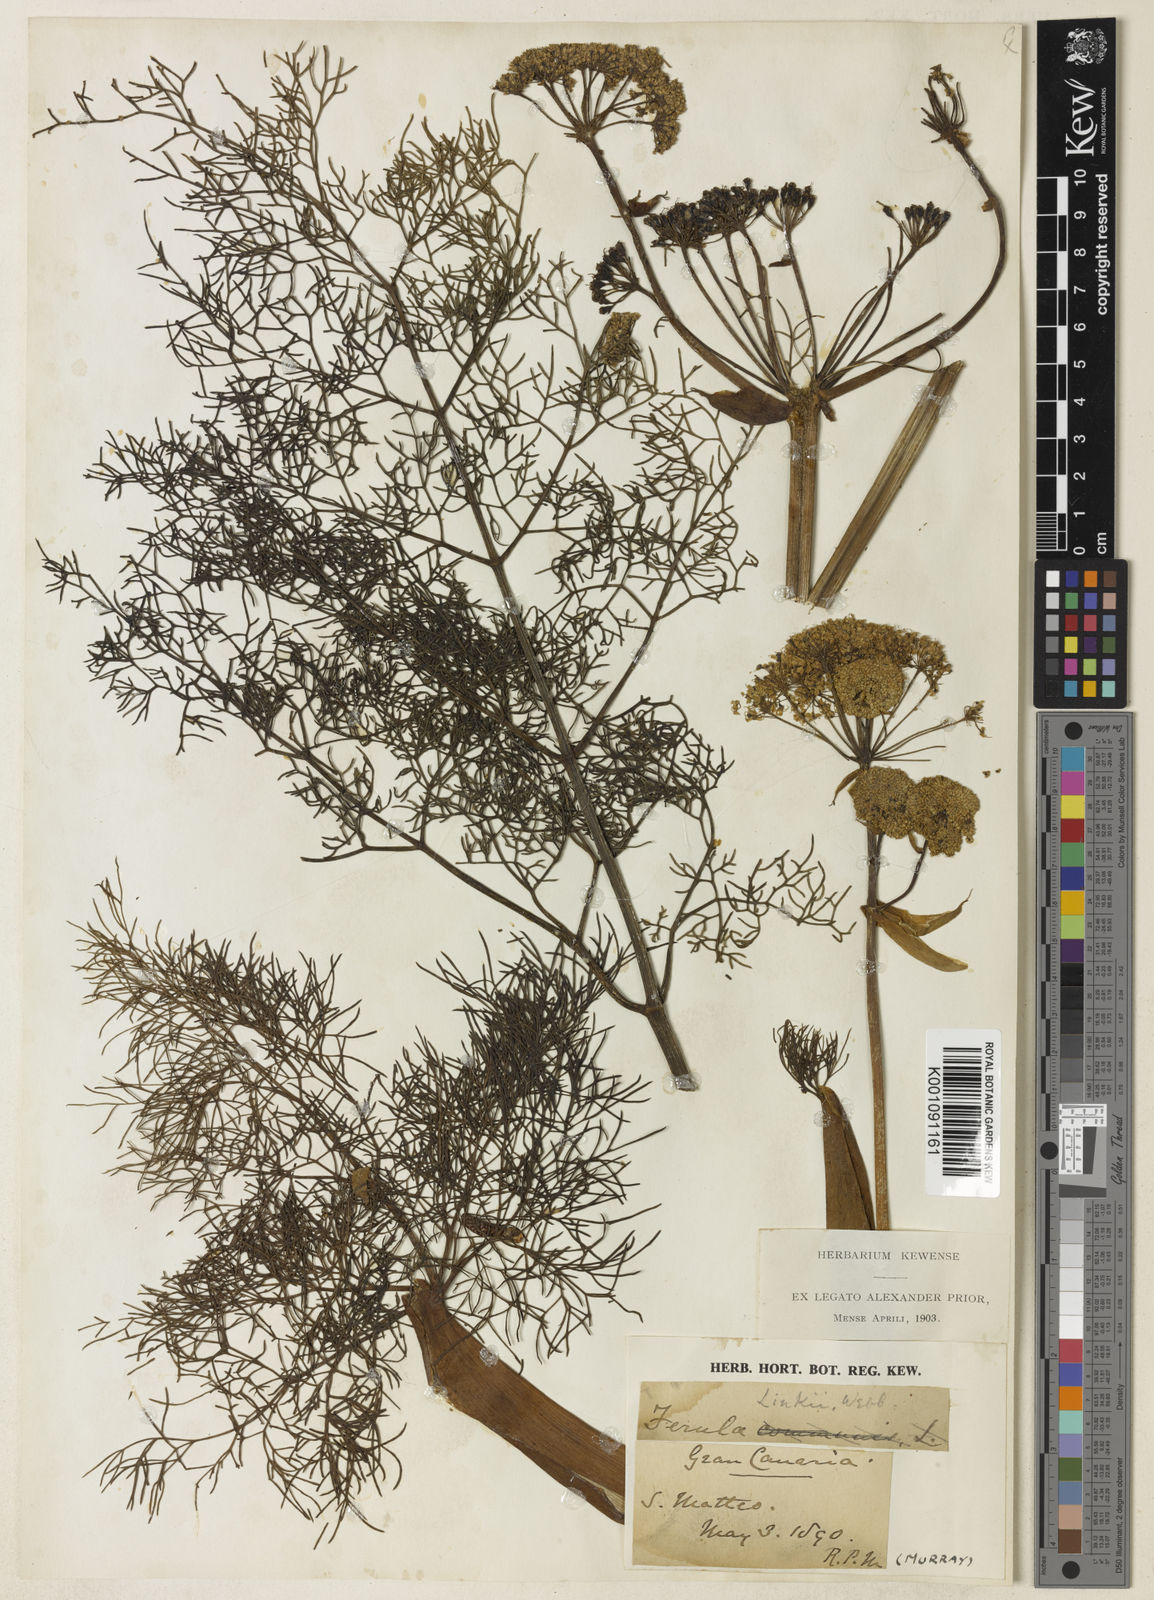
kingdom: Plantae
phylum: Tracheophyta
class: Magnoliopsida
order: Apiales
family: Apiaceae
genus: Ferula
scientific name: Ferula communis
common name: Giant fennel
